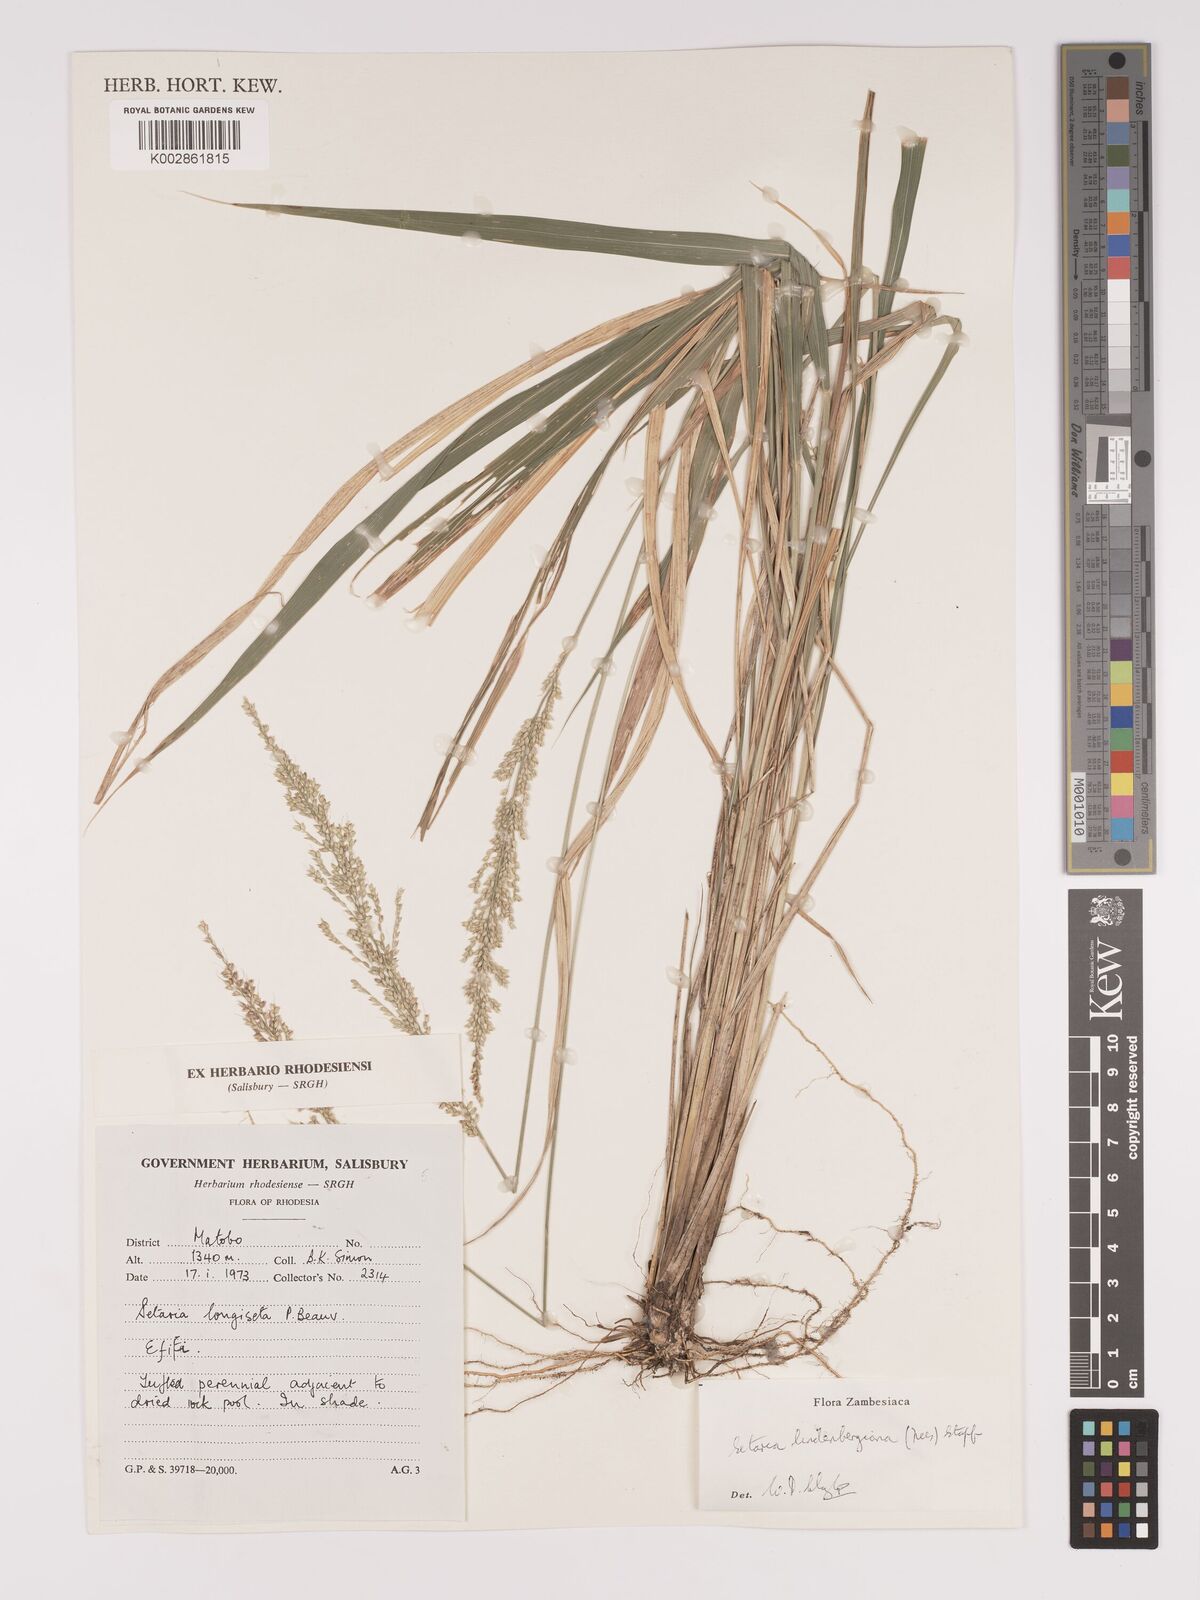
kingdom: Plantae
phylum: Tracheophyta
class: Liliopsida
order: Poales
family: Poaceae
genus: Setaria
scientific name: Setaria lindenbergiana
